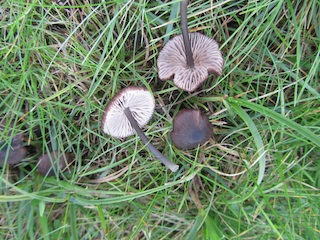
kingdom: Fungi
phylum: Basidiomycota
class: Agaricomycetes
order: Agaricales
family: Entolomataceae
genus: Entoloma
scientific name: Entoloma
